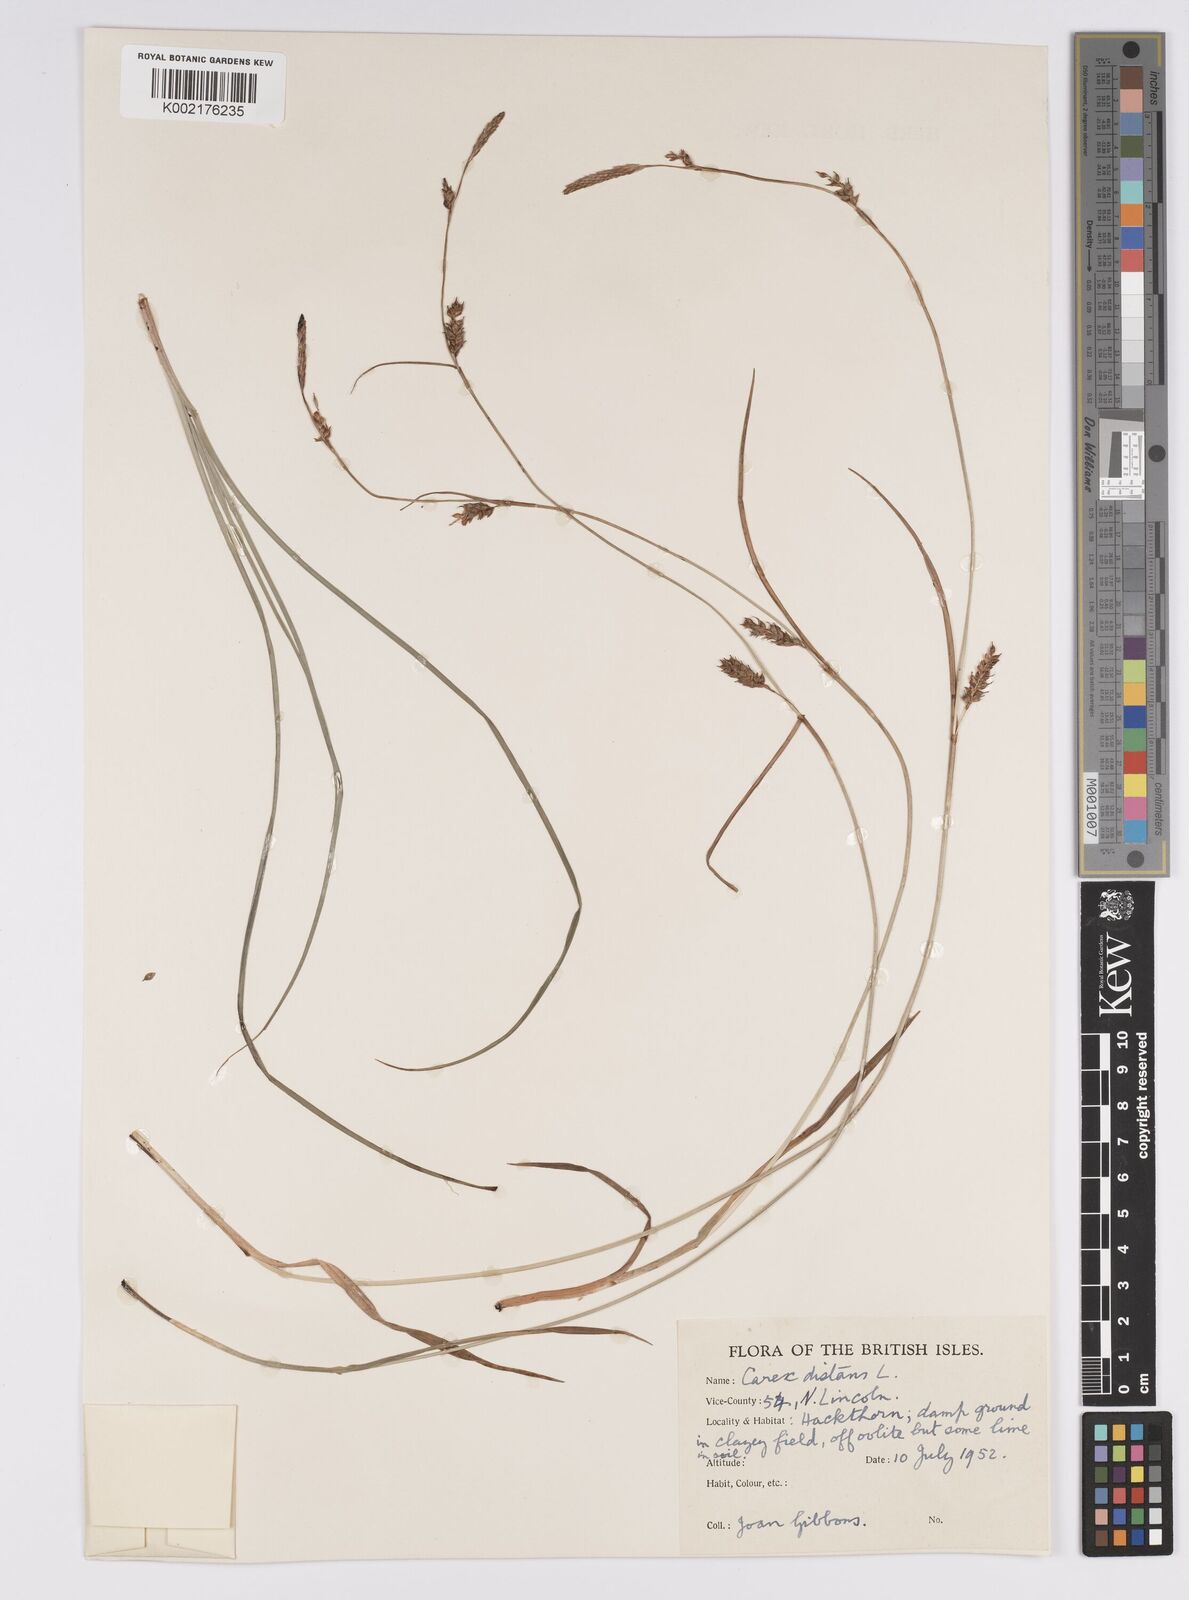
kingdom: Plantae
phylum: Tracheophyta
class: Liliopsida
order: Poales
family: Cyperaceae
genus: Carex
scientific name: Carex distans
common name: Distant sedge
